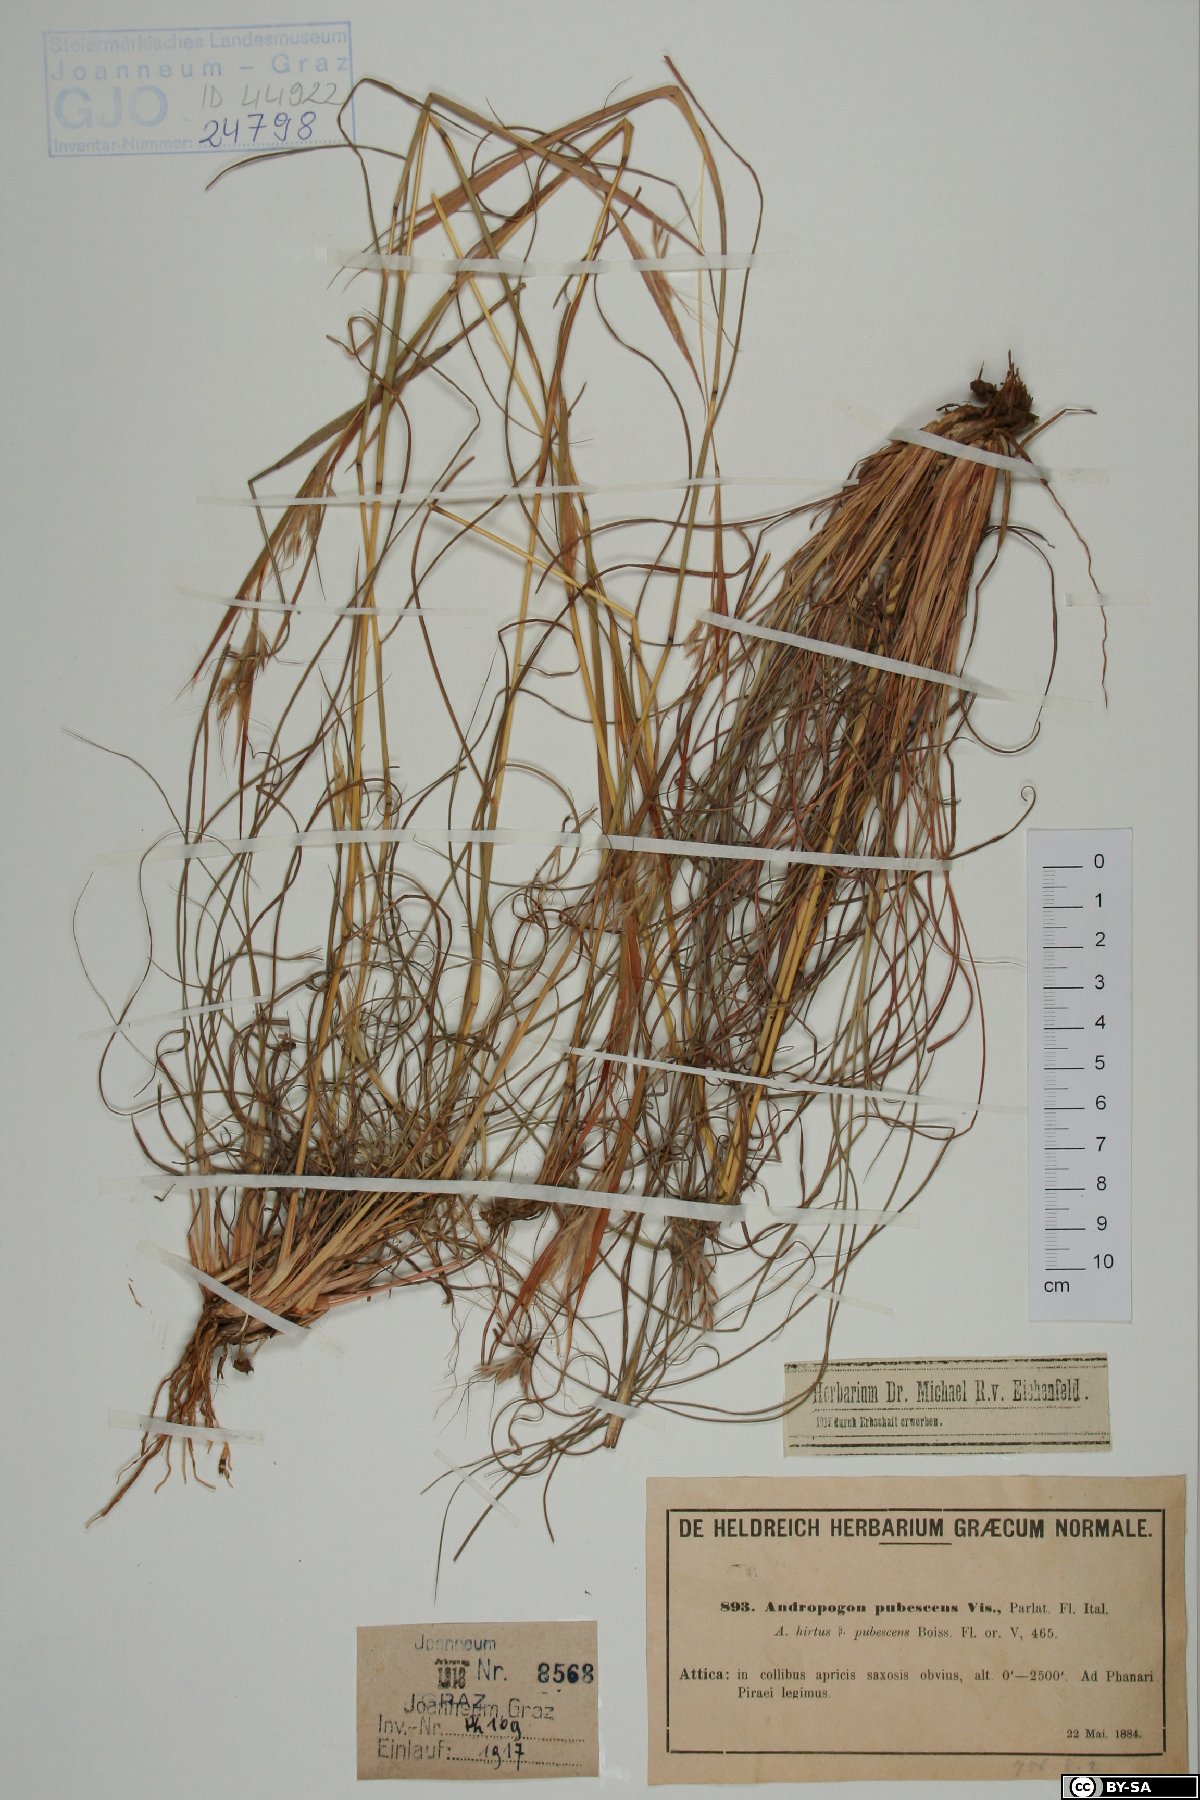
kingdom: Plantae
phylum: Tracheophyta
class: Liliopsida
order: Poales
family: Poaceae
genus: Hyparrhenia
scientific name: Hyparrhenia hirta
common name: Thatching grass
